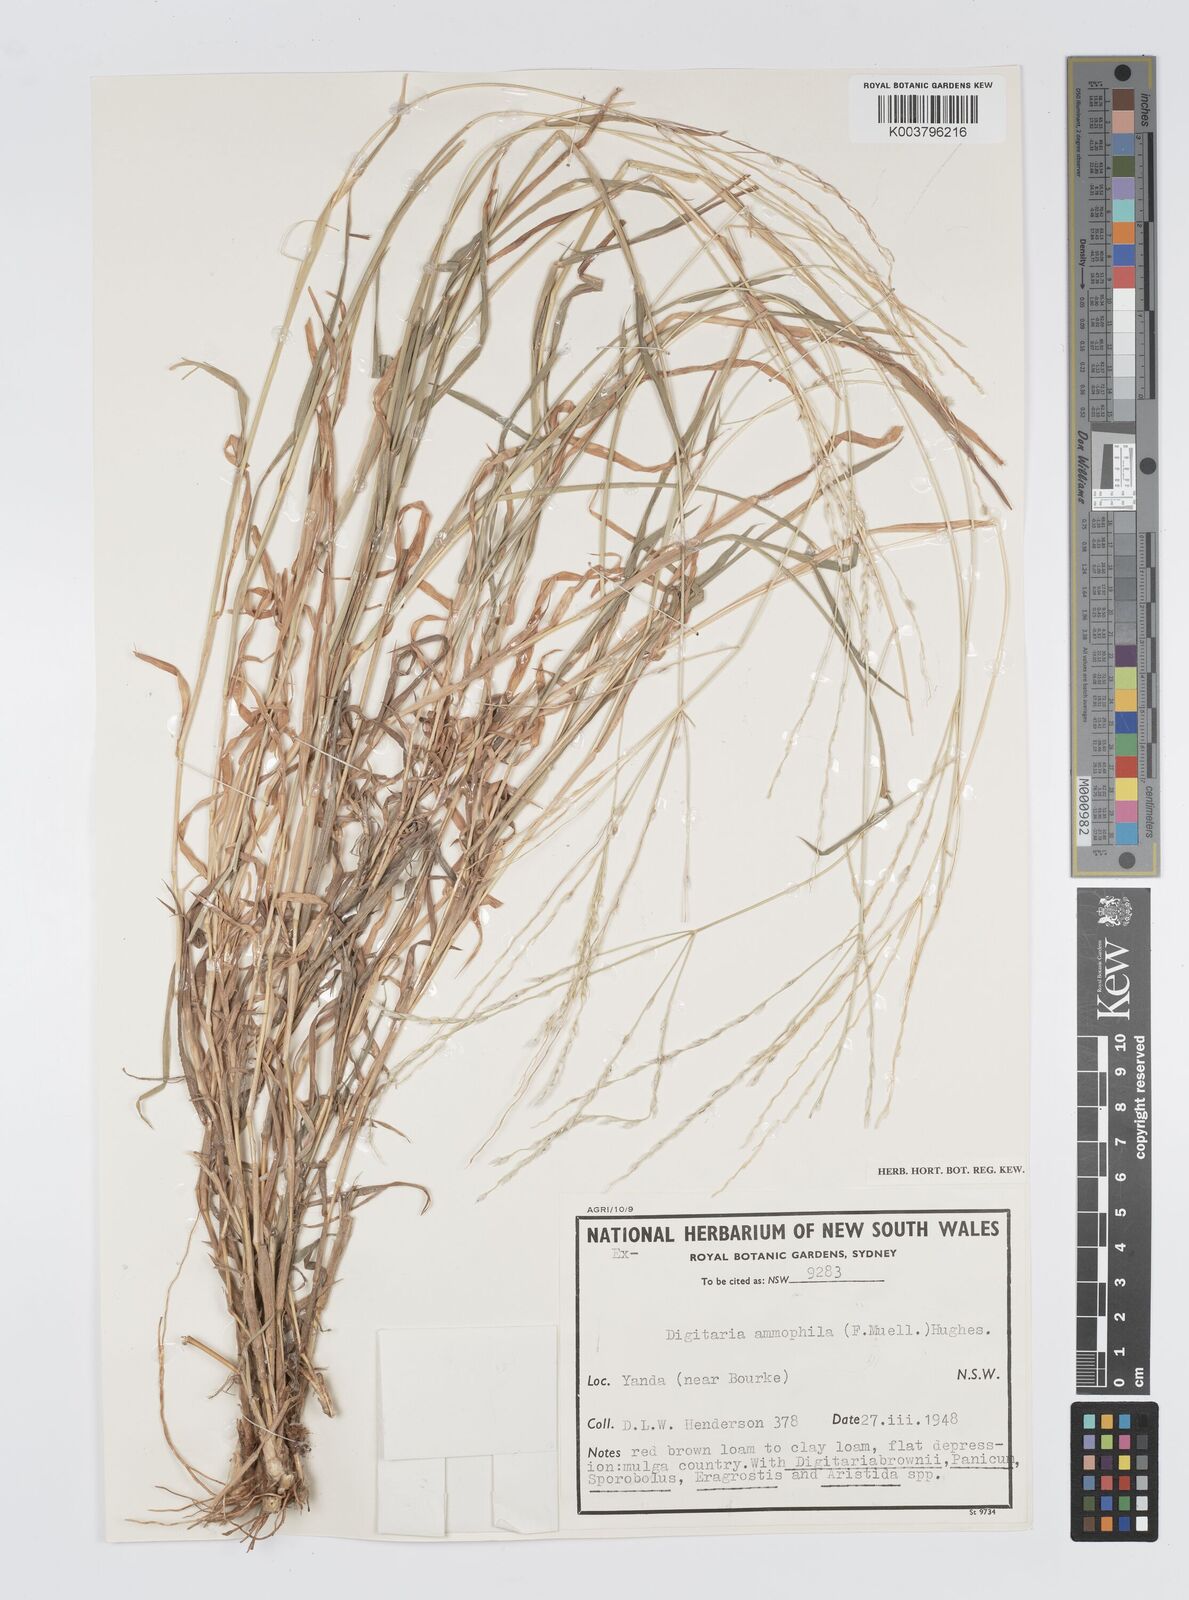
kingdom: Plantae
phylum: Tracheophyta
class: Liliopsida
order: Poales
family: Poaceae
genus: Digitaria
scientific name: Digitaria ammophila
